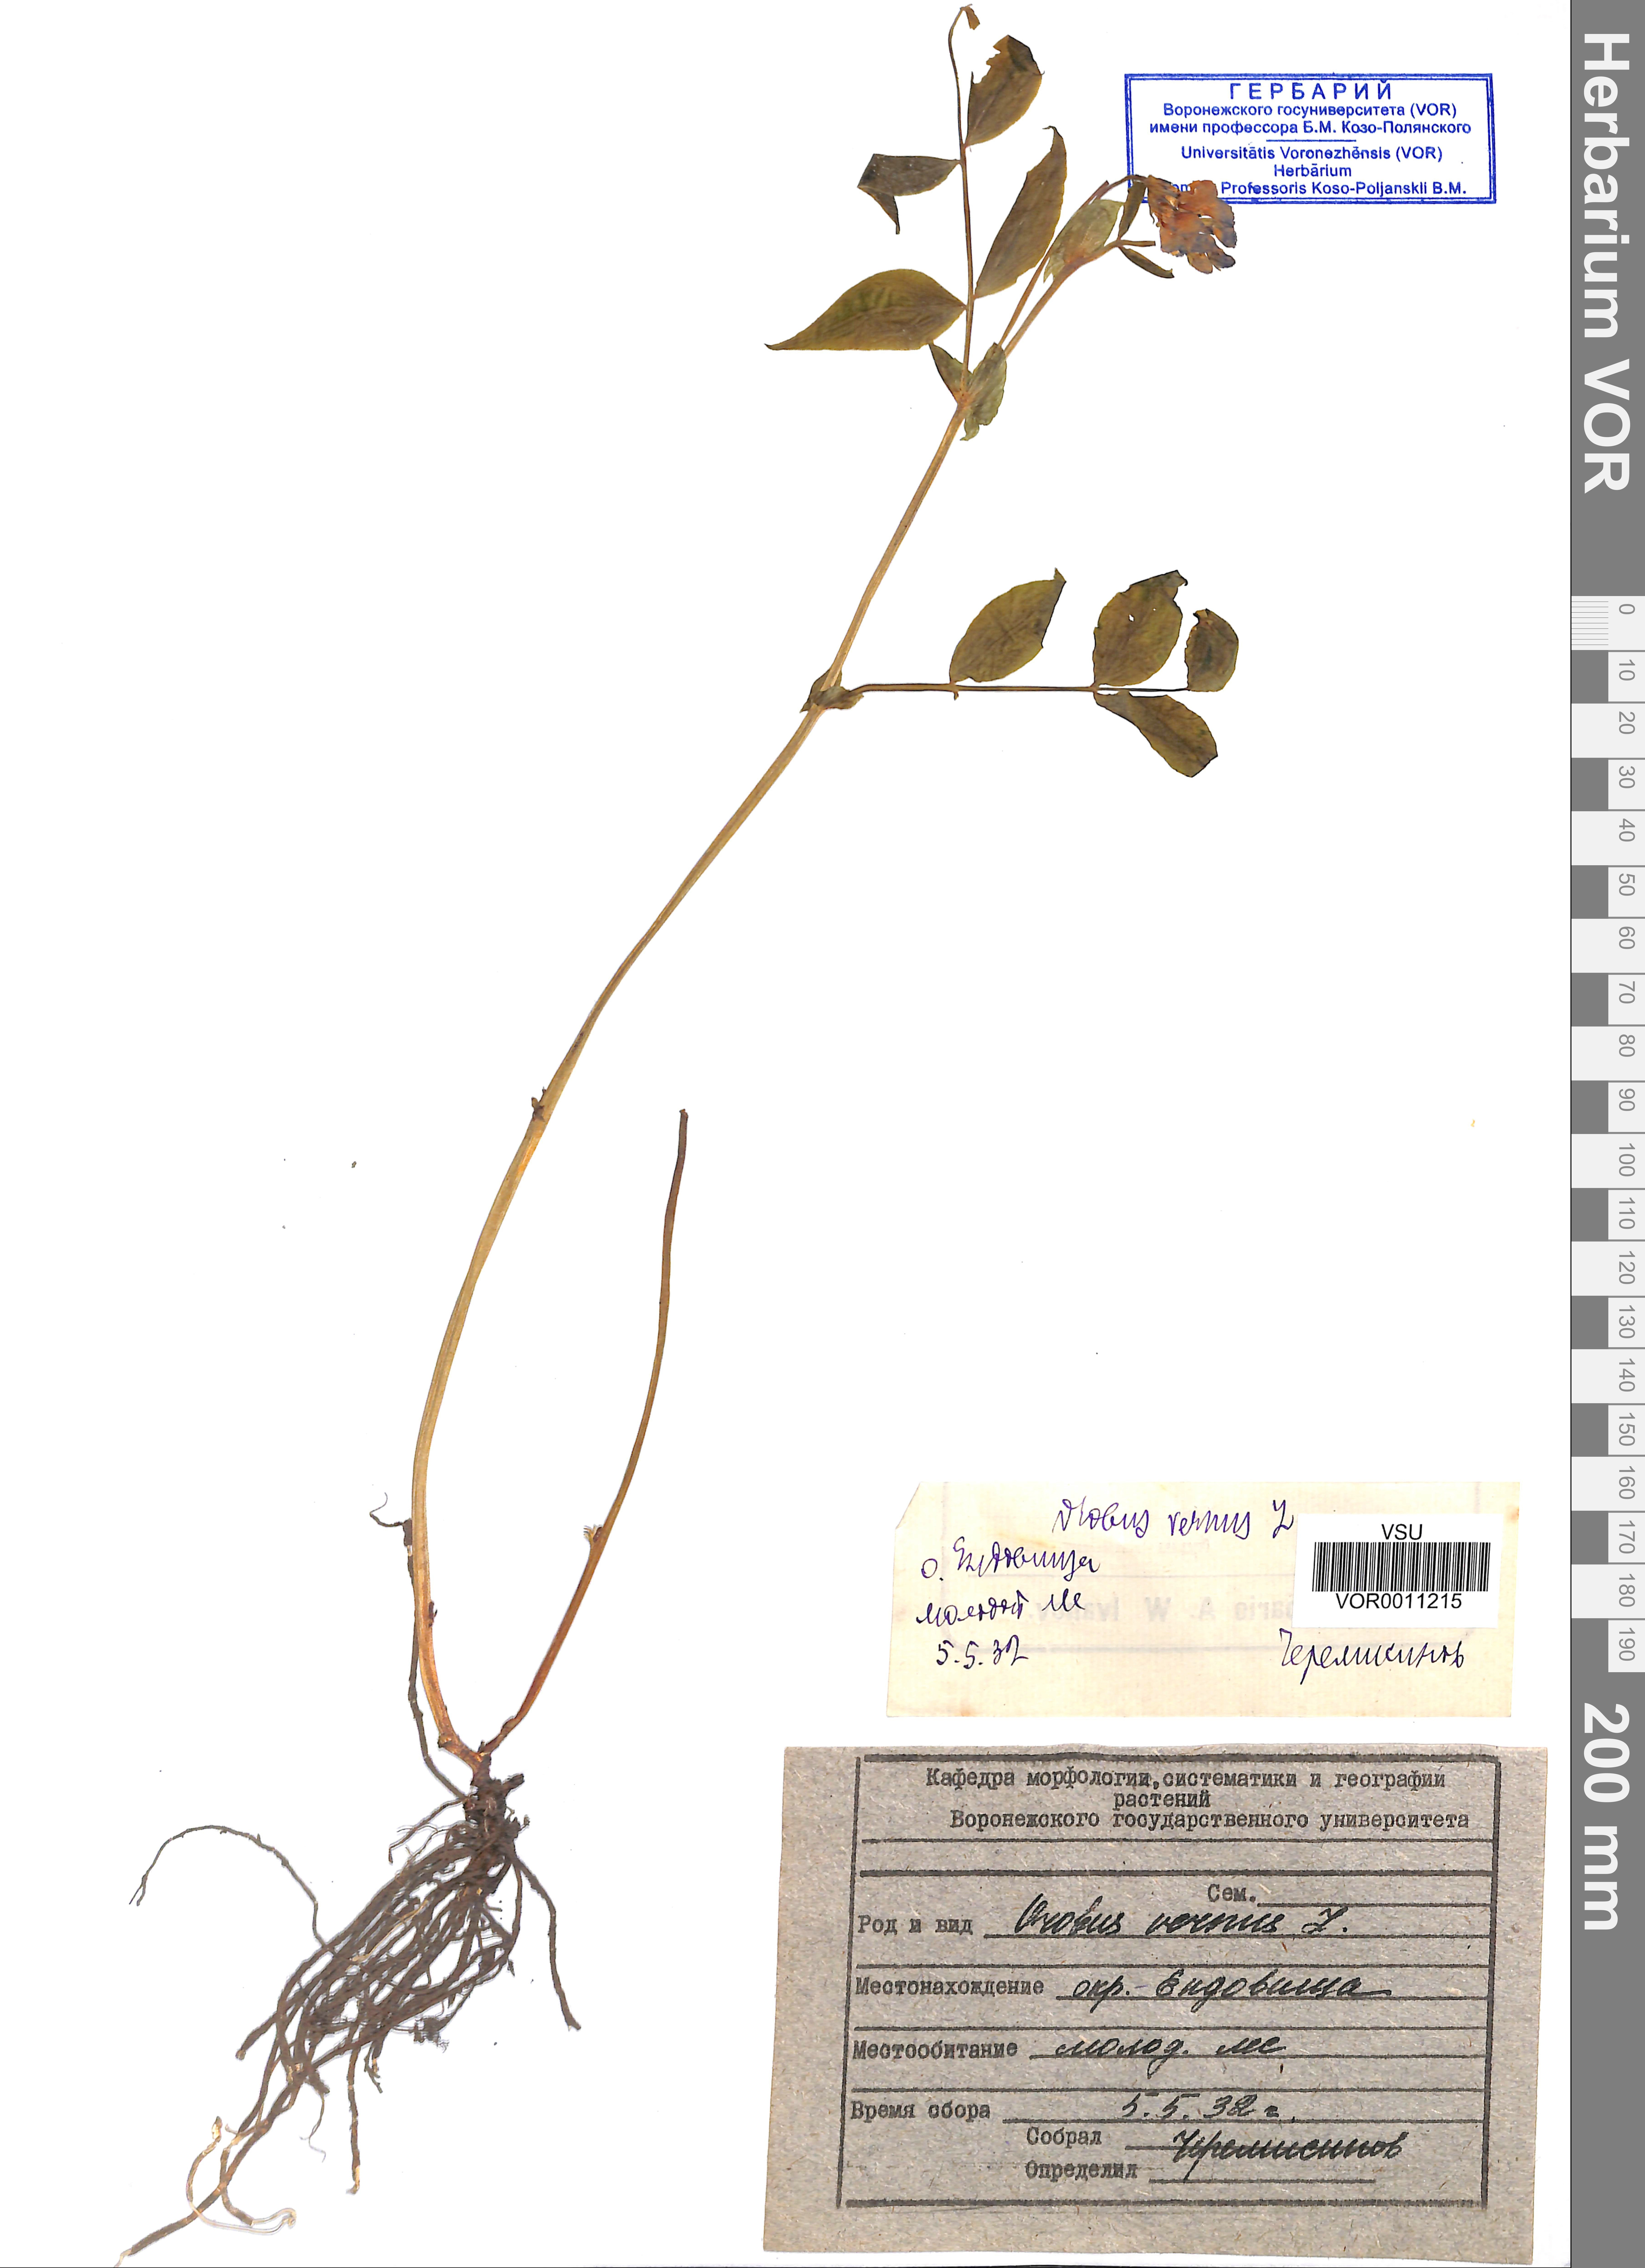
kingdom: Plantae
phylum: Tracheophyta
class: Magnoliopsida
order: Fabales
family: Fabaceae
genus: Lathyrus
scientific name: Lathyrus vernus
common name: Spring pea
